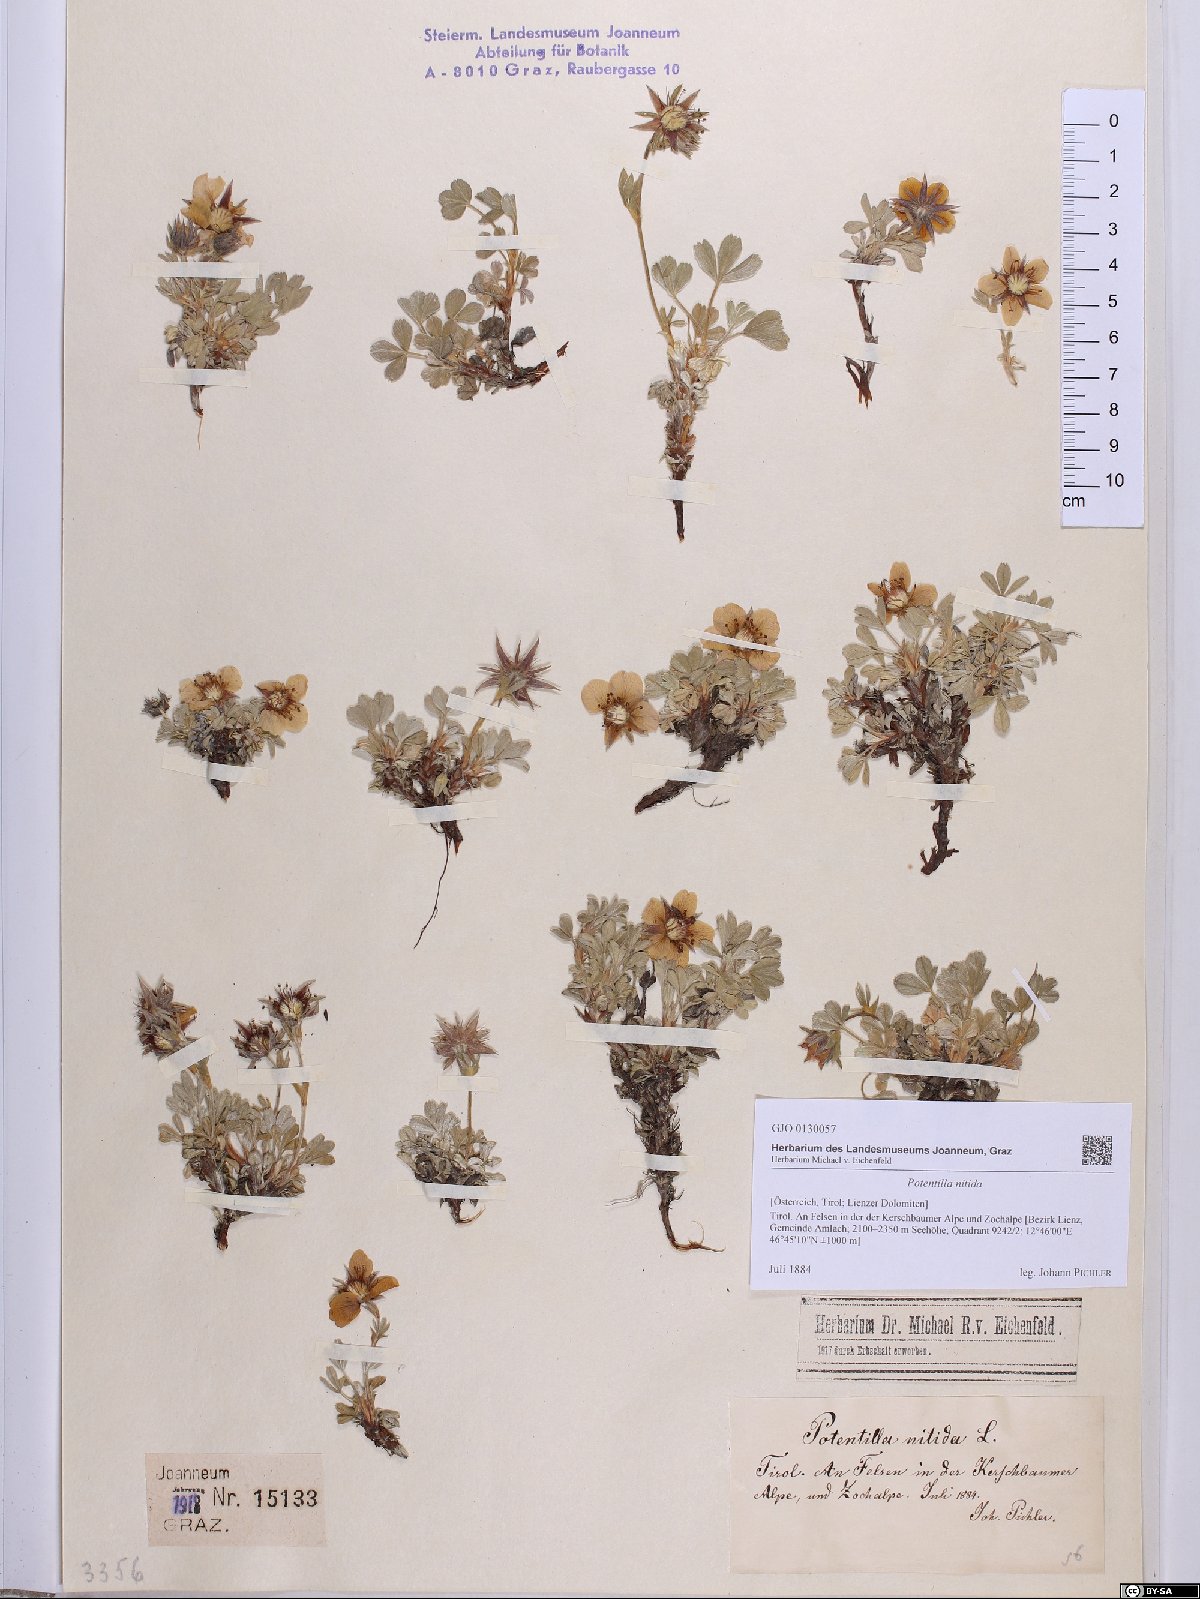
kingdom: Plantae
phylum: Tracheophyta
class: Magnoliopsida
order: Rosales
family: Rosaceae
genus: Potentilla
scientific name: Potentilla nitida
